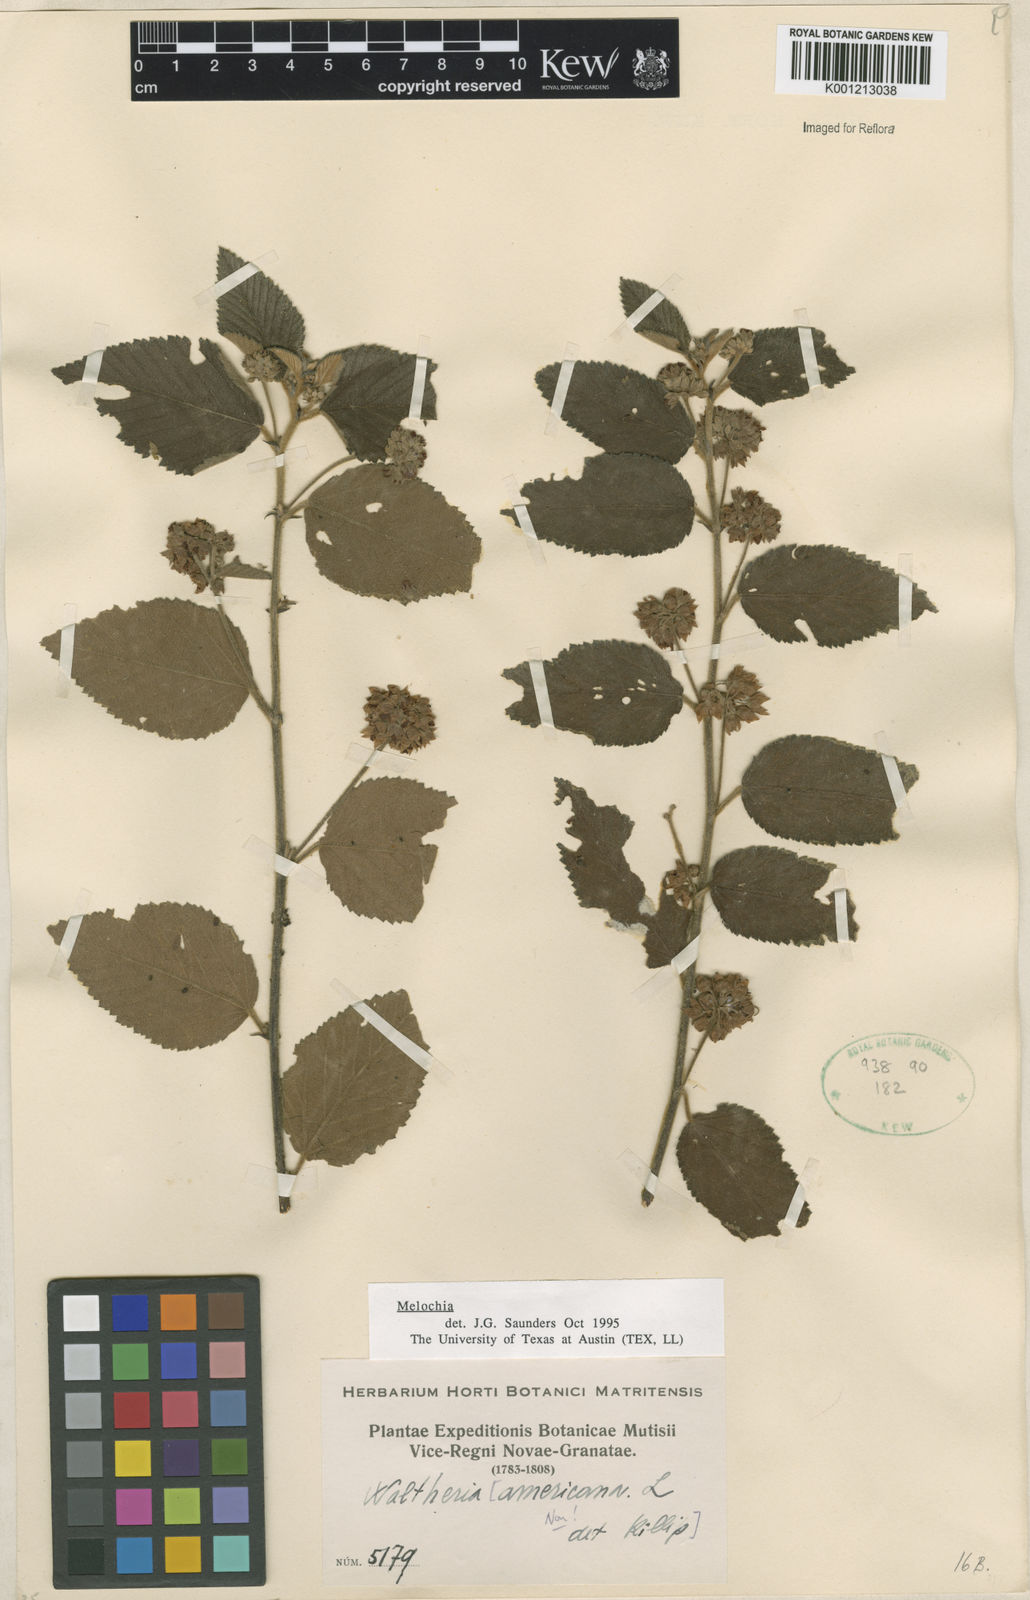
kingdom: Plantae
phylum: Tracheophyta
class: Magnoliopsida
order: Malvales
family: Malvaceae
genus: Melochia
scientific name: Melochia
